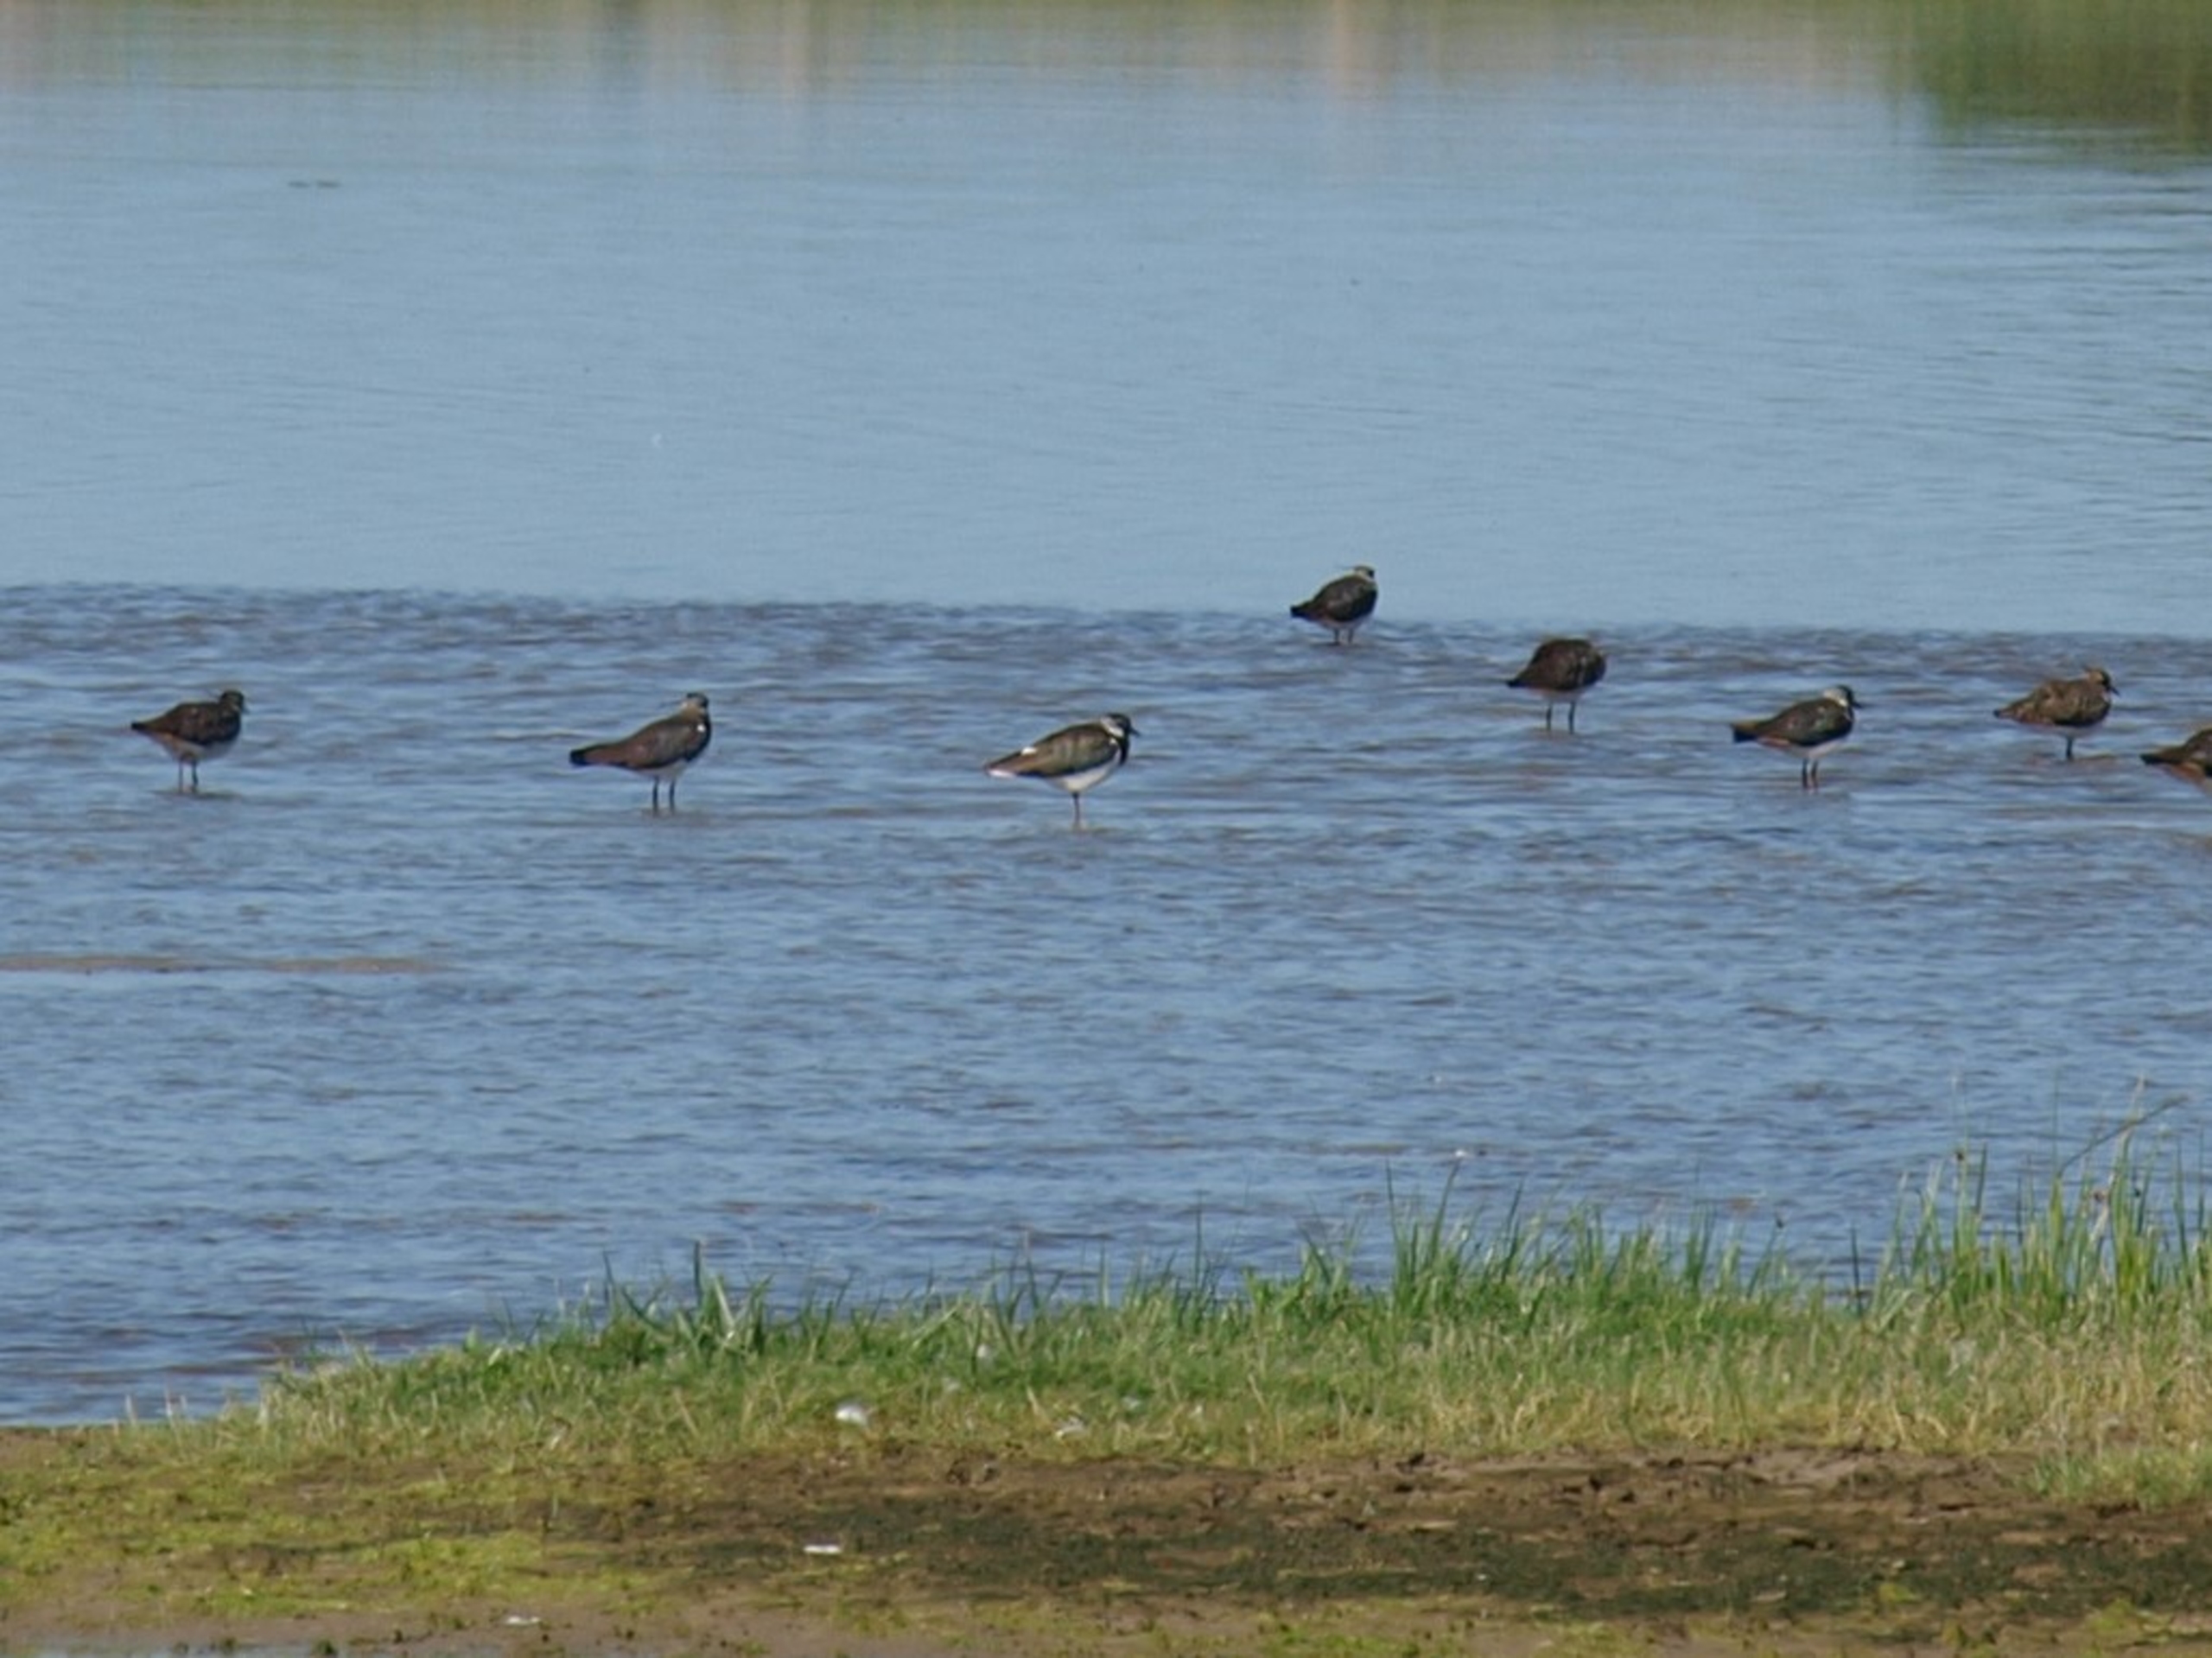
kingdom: Animalia
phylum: Chordata
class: Aves
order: Charadriiformes
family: Charadriidae
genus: Vanellus
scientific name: Vanellus vanellus
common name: Vibe
